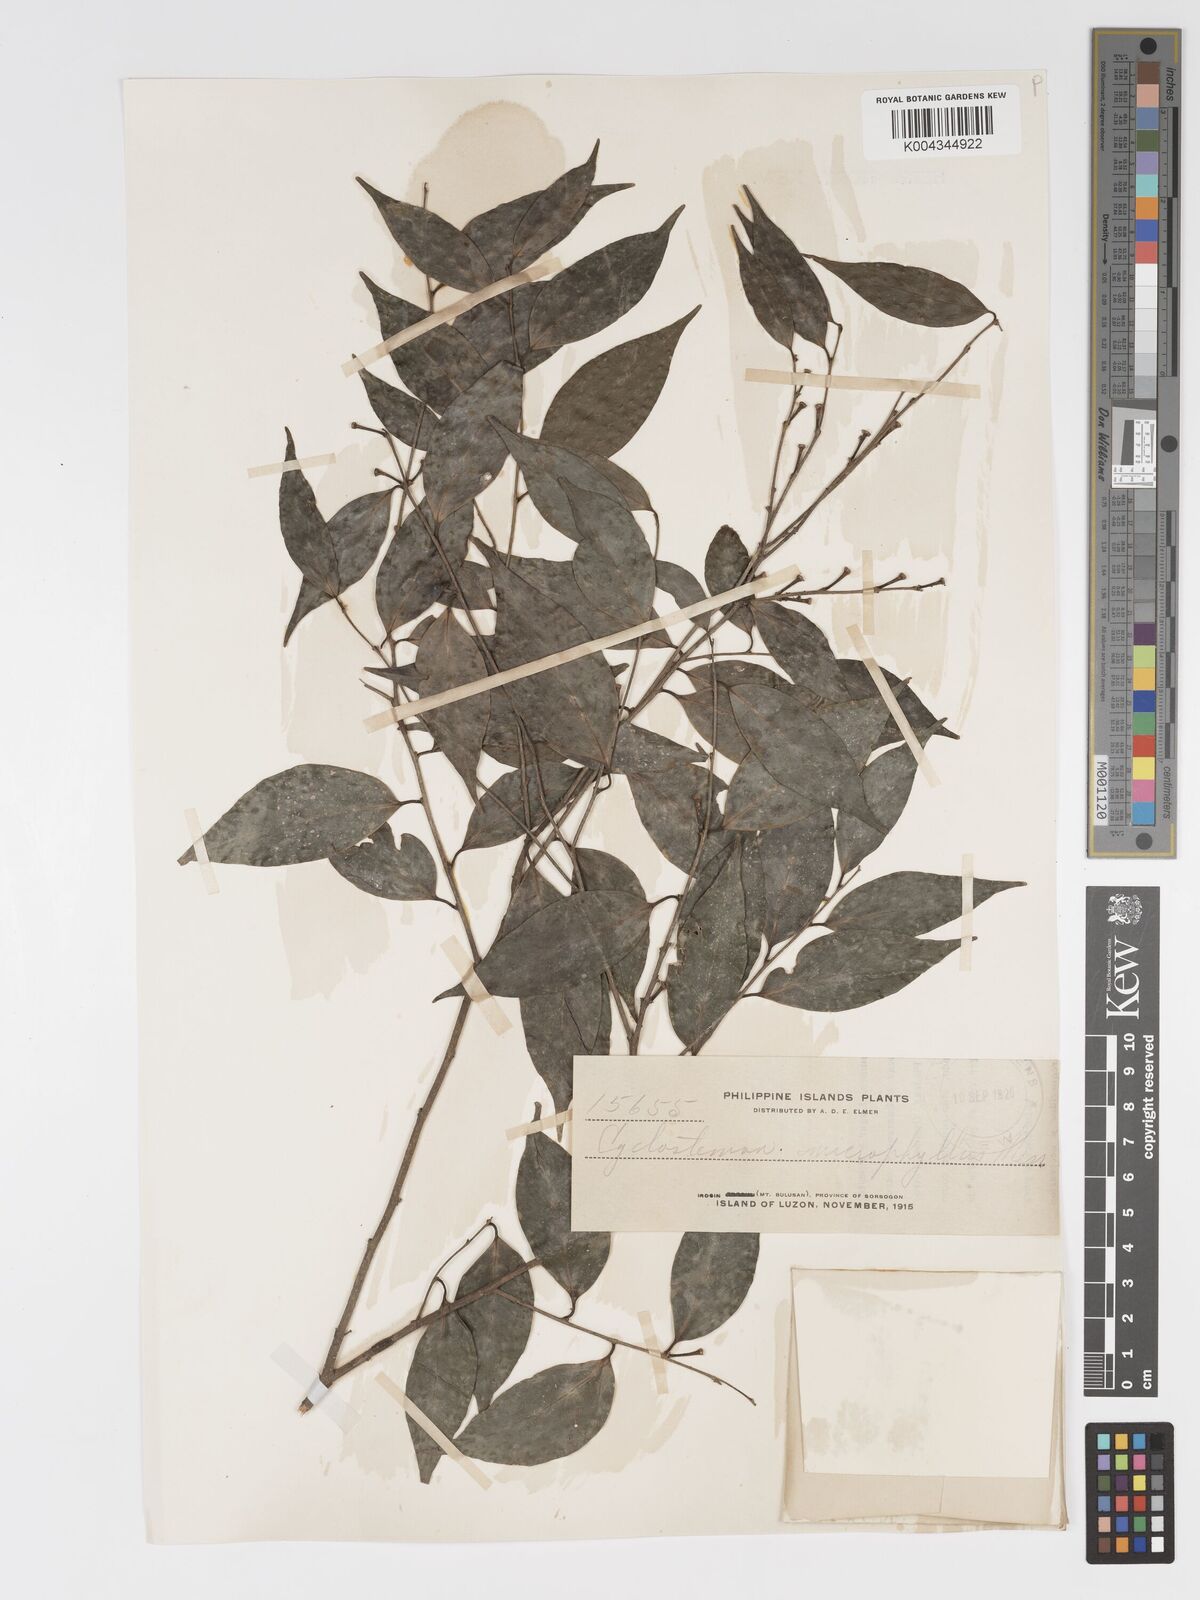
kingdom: Plantae
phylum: Tracheophyta
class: Magnoliopsida
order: Malpighiales
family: Putranjivaceae
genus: Drypetes
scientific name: Drypetes microphylla
